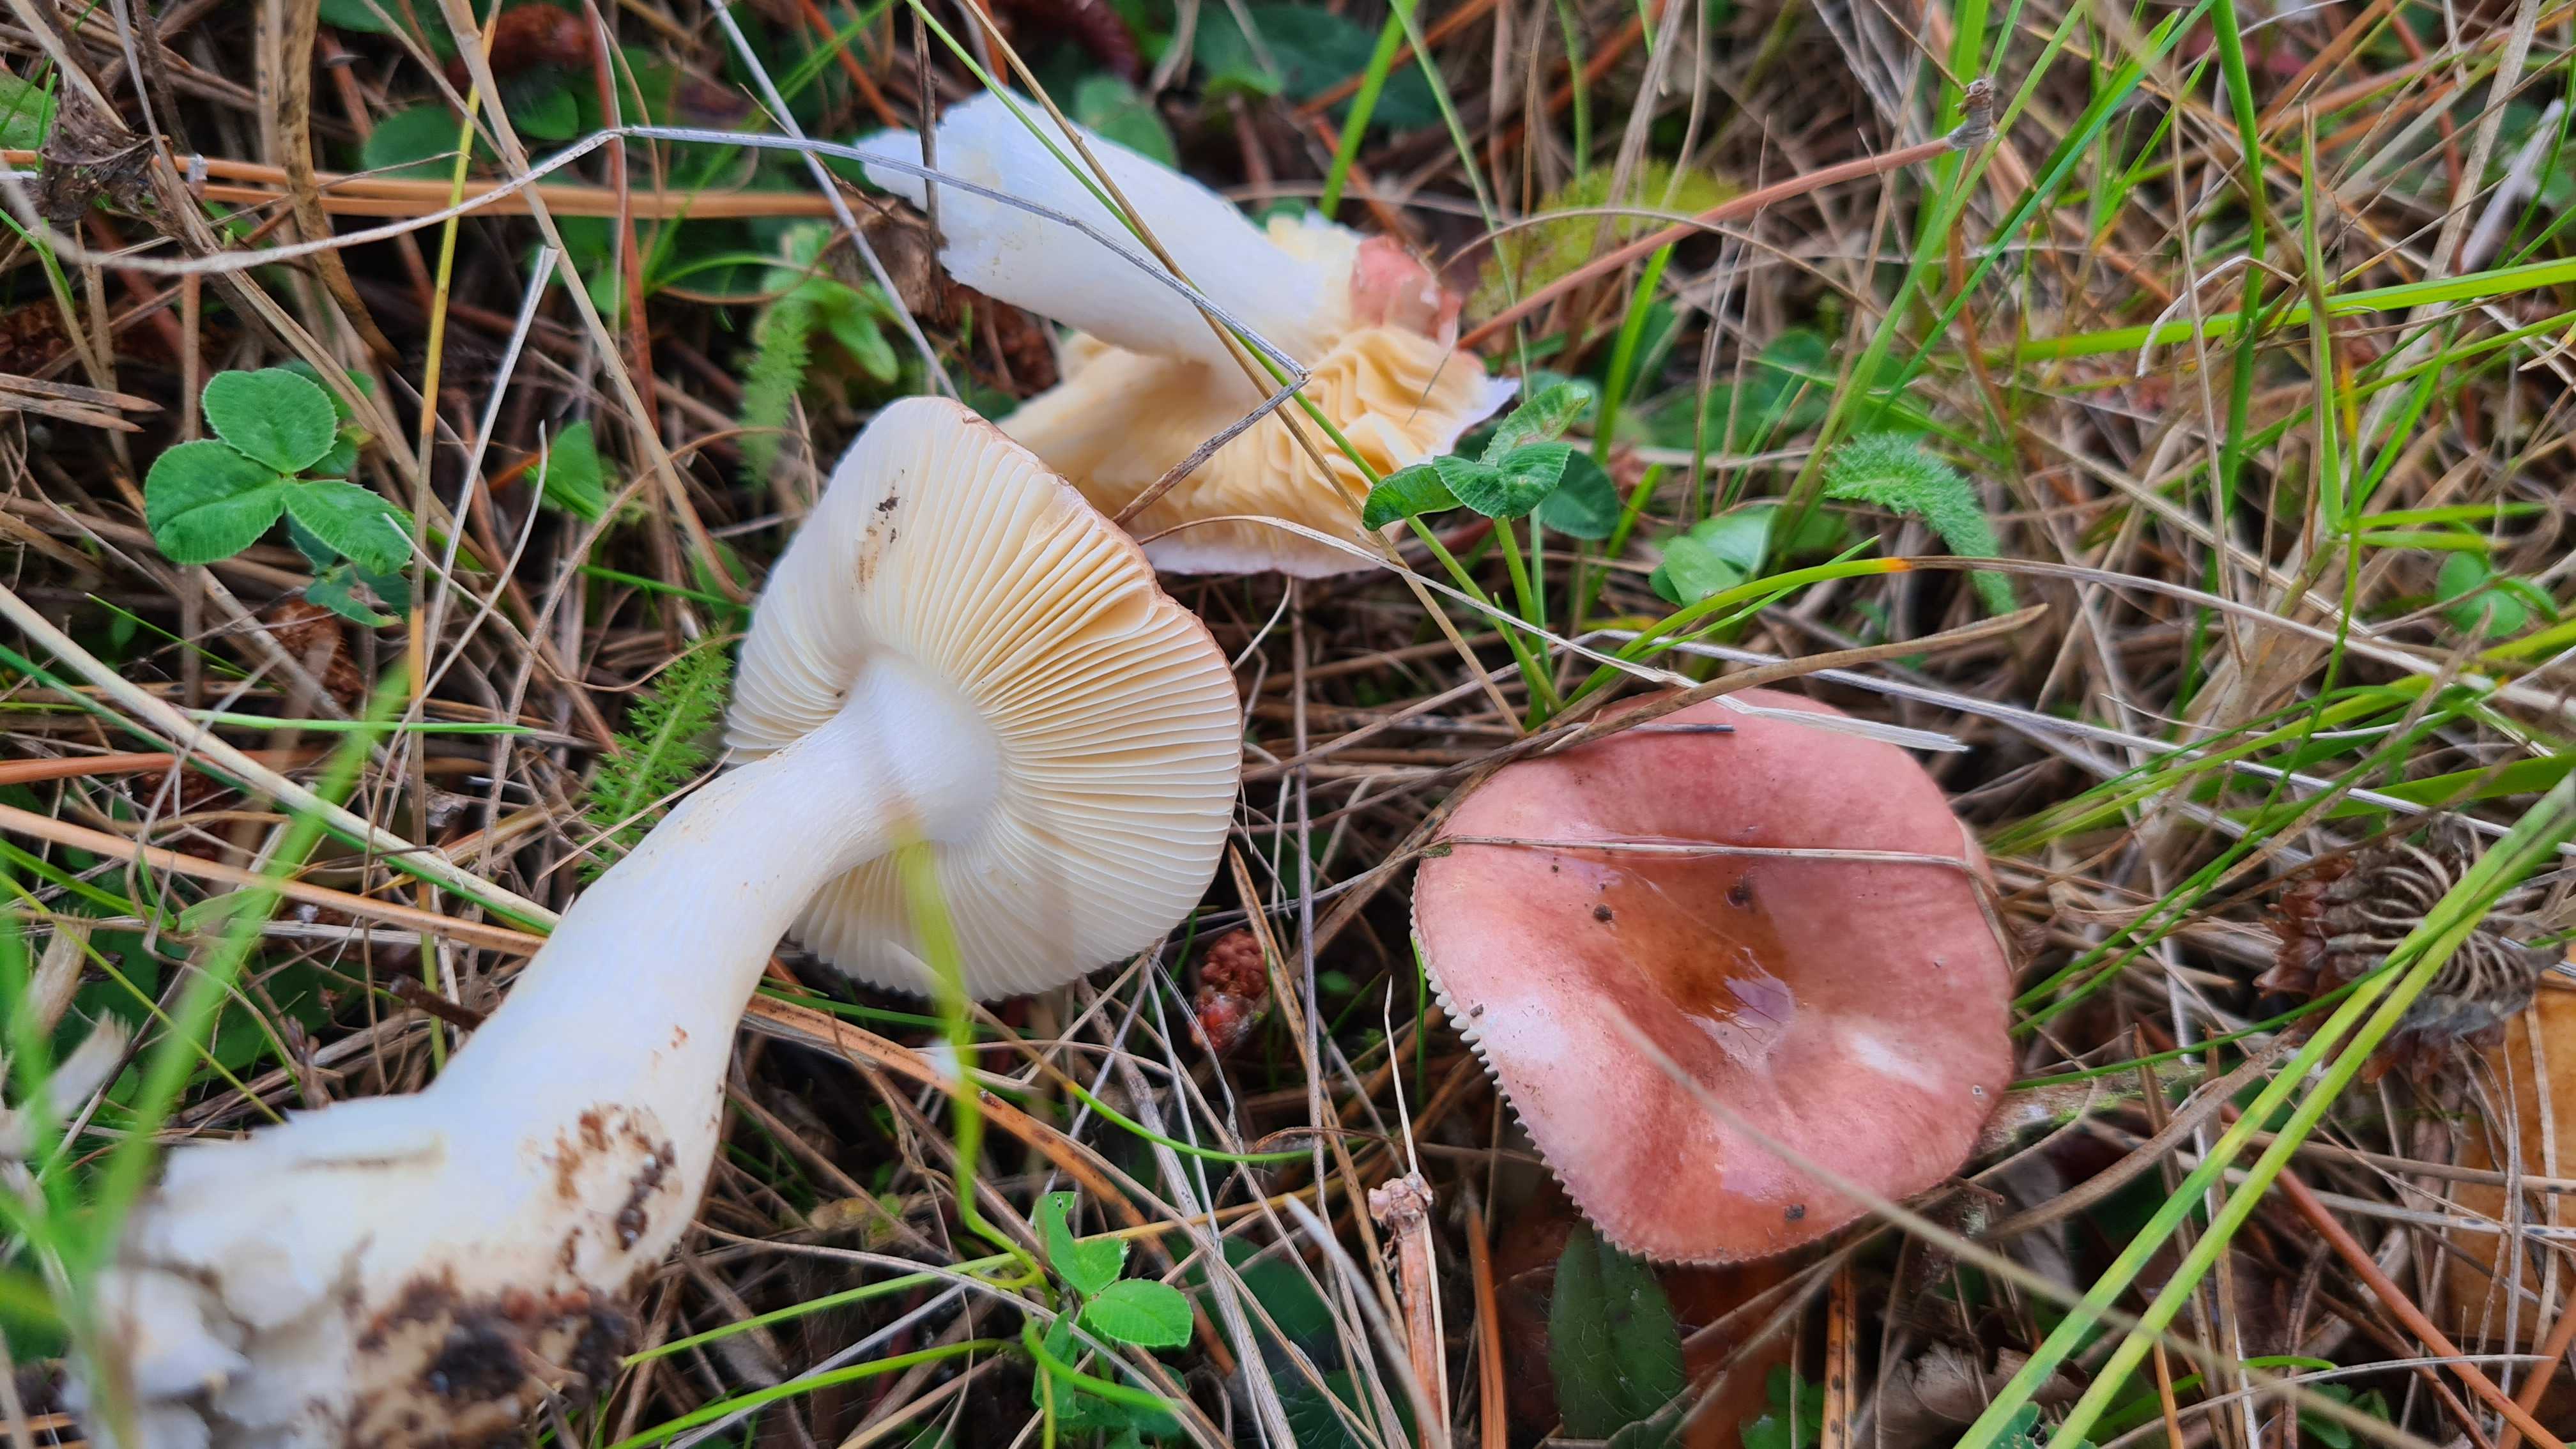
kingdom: Fungi
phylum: Basidiomycota
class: Agaricomycetes
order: Russulales
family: Russulaceae
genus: Russula
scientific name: Russula cessans
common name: fyrre-skørhat
